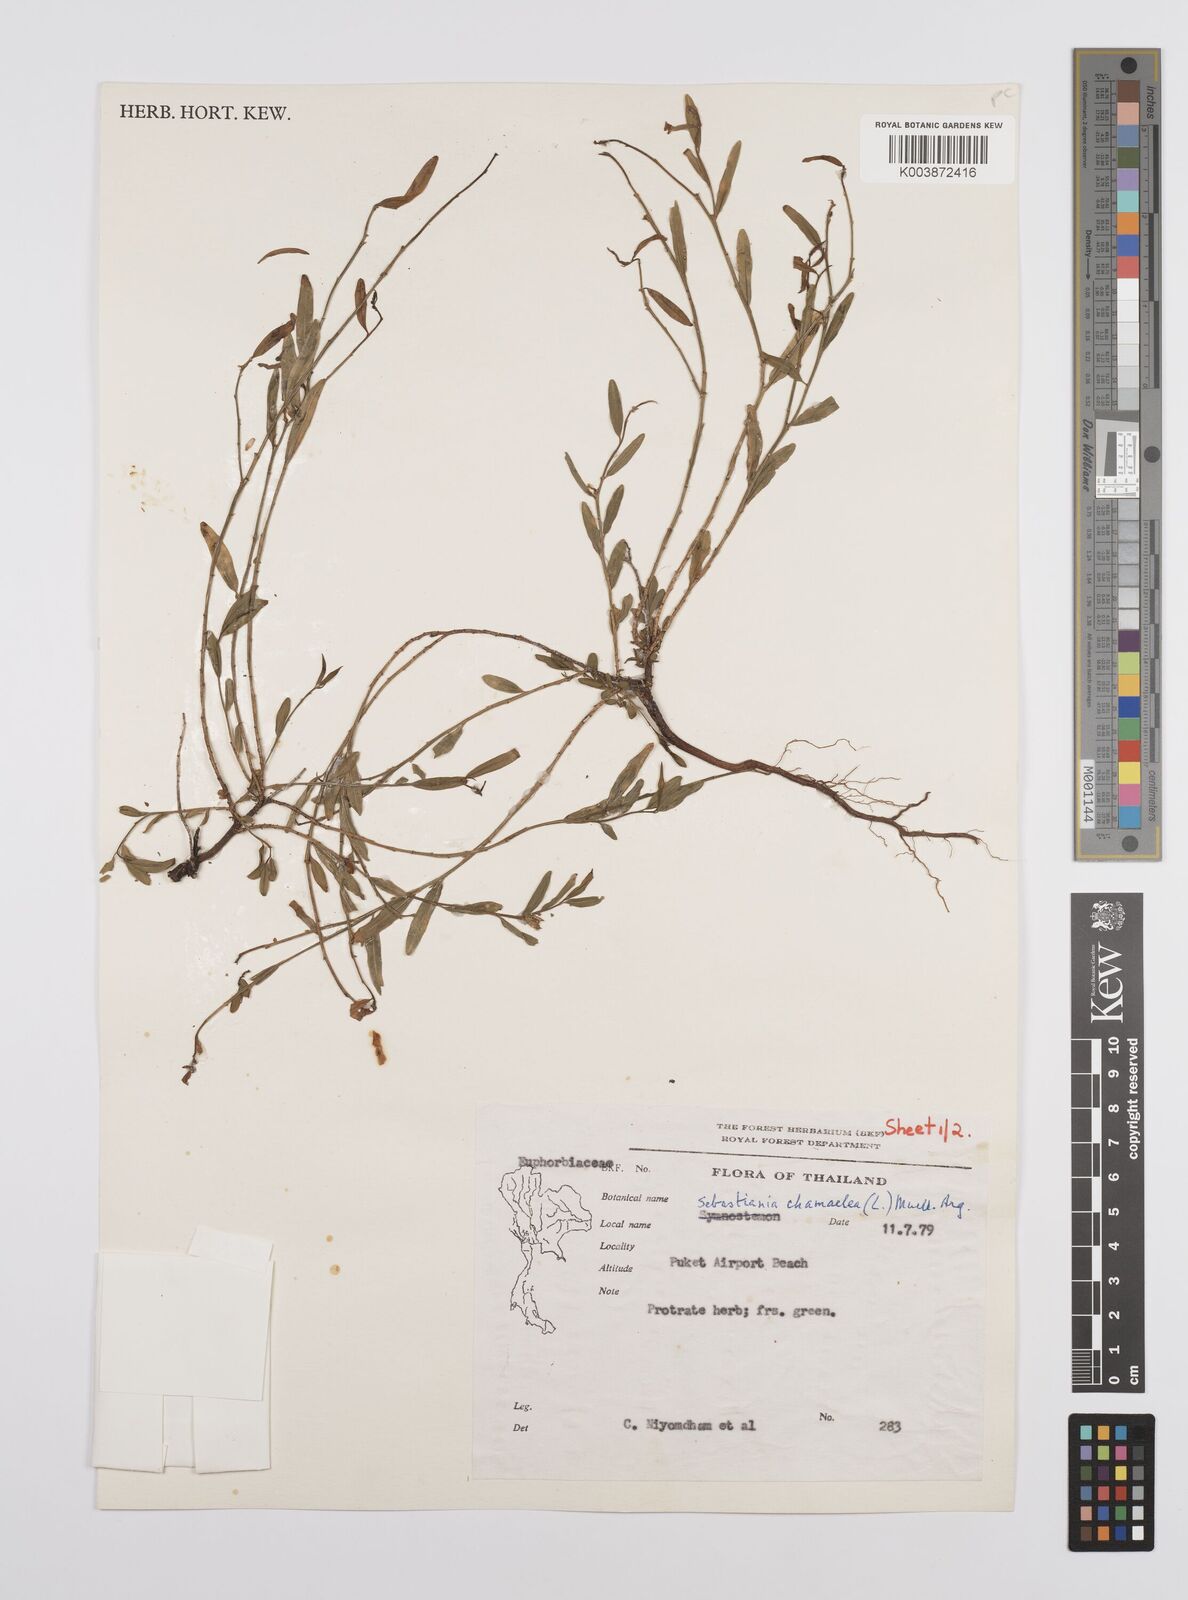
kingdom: Plantae
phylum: Tracheophyta
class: Magnoliopsida
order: Malpighiales
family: Euphorbiaceae
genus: Microstachys
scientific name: Microstachys chamaelea
